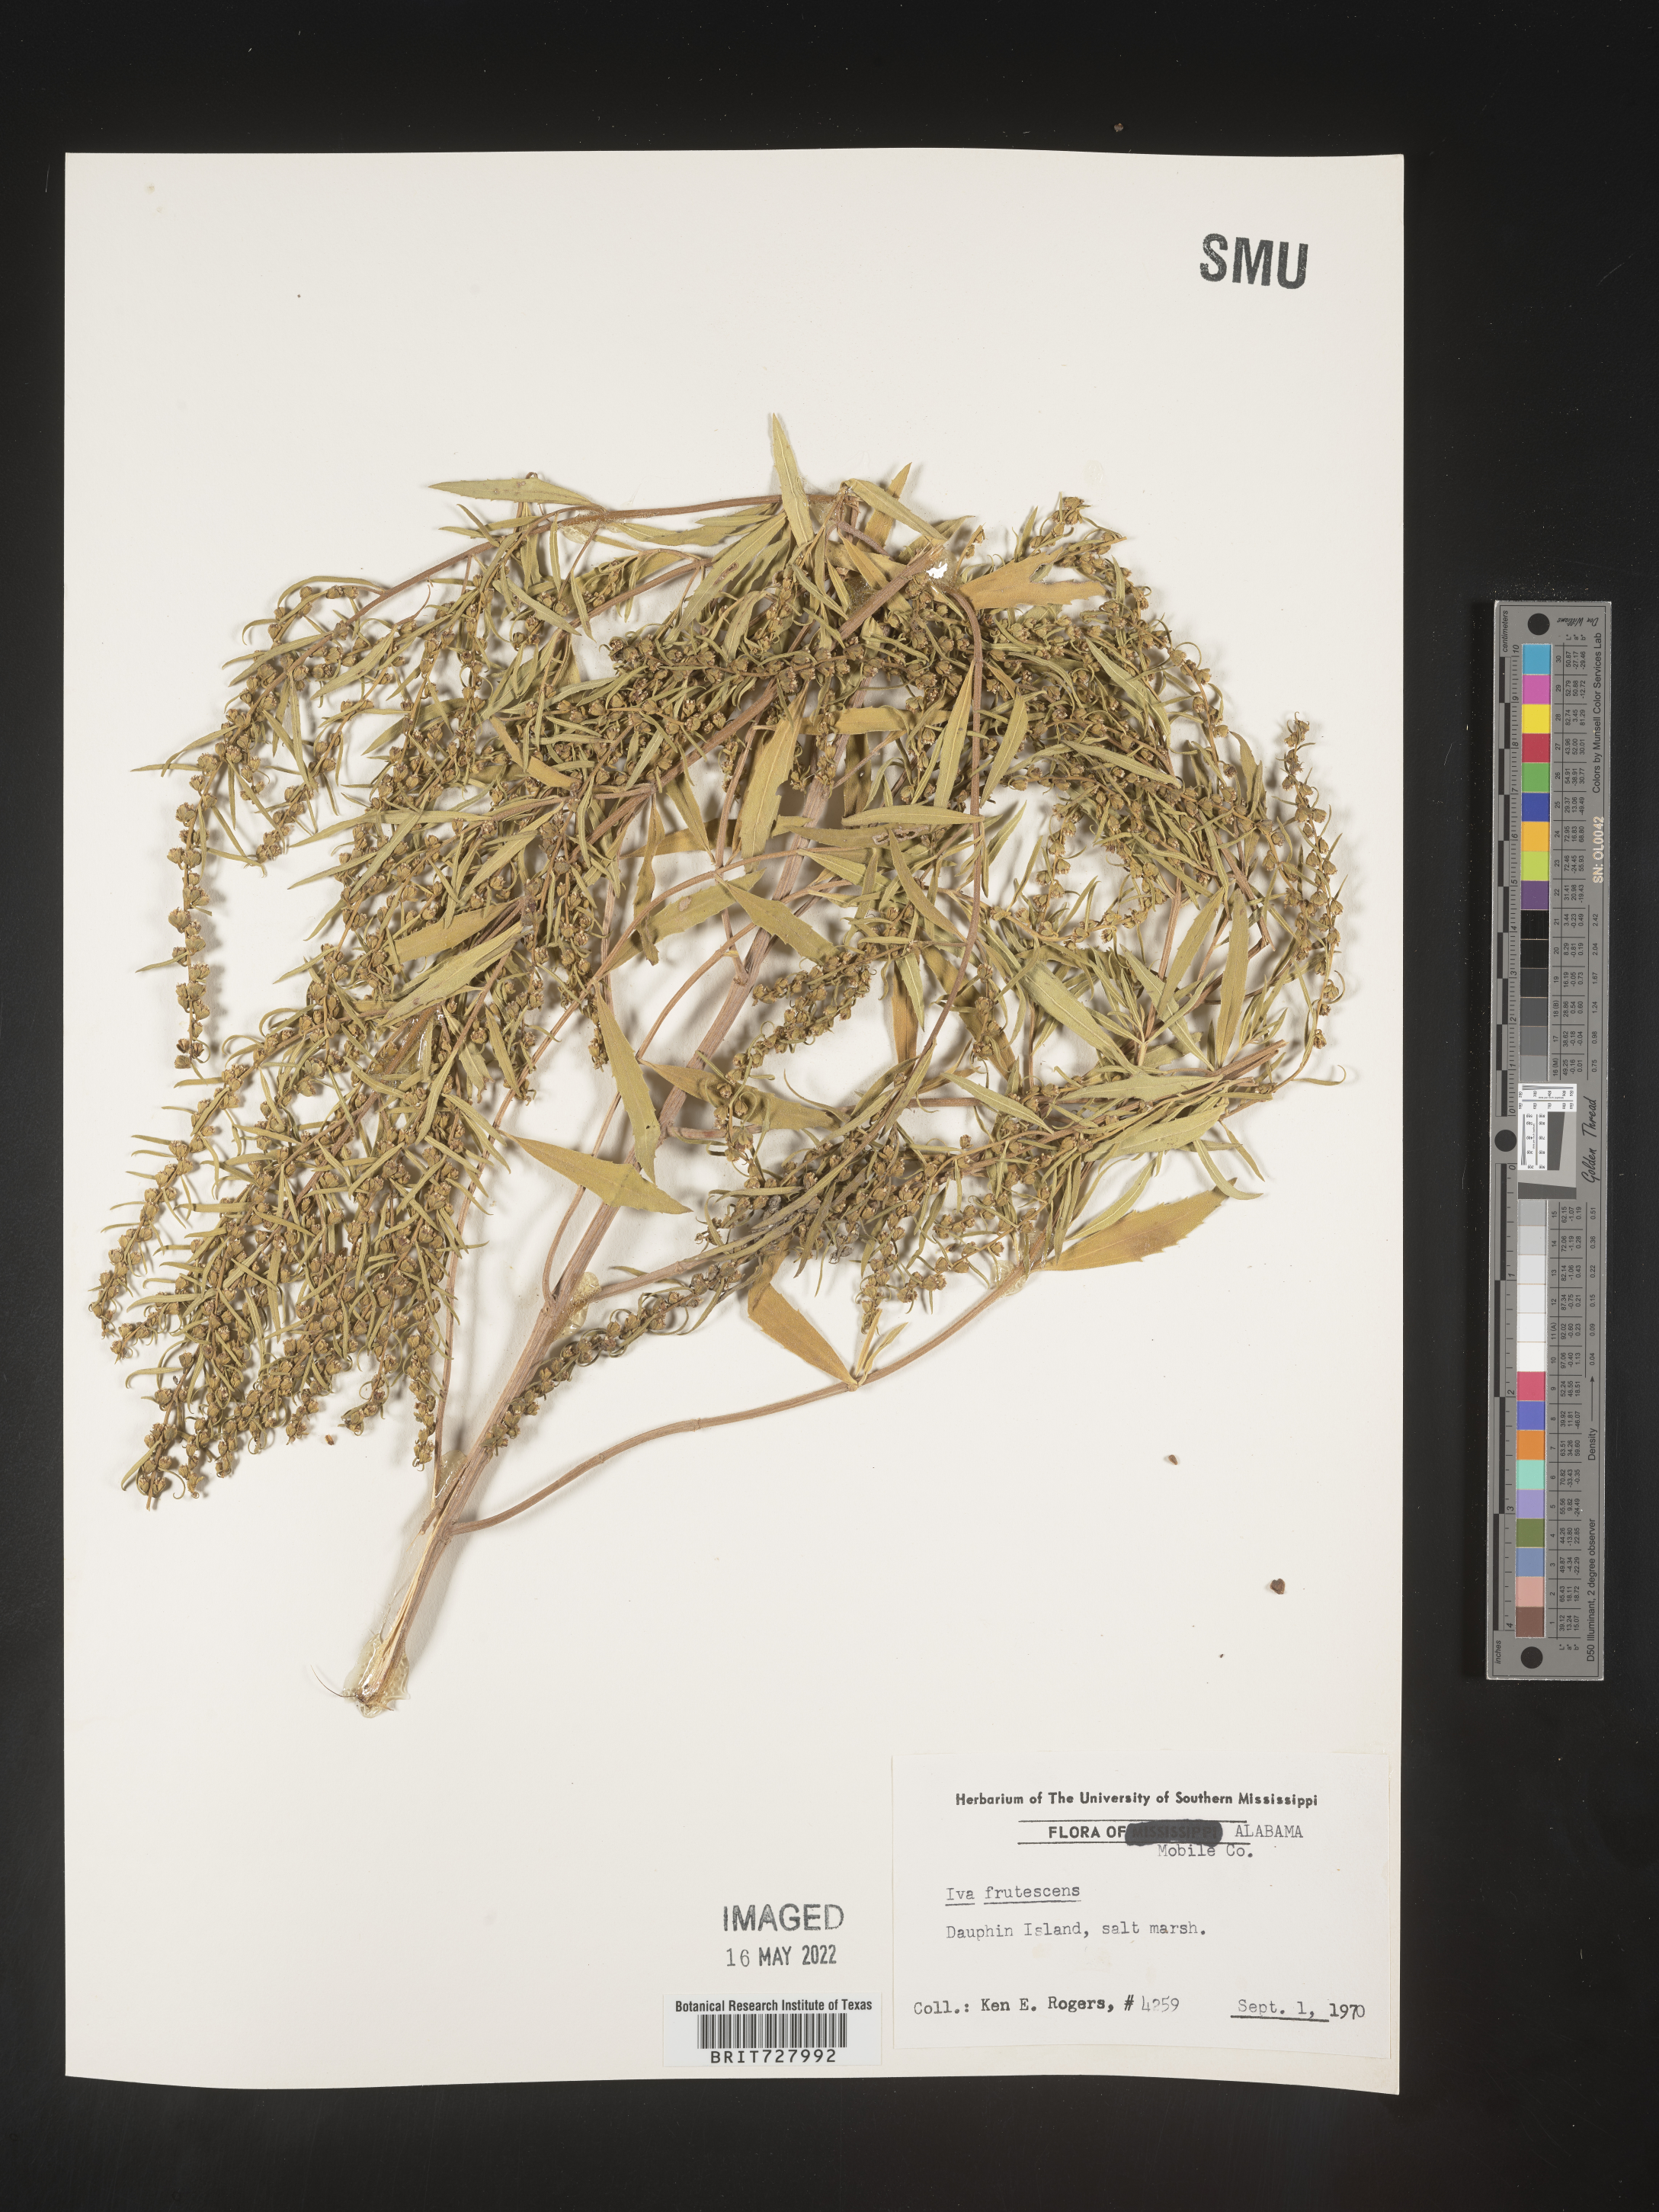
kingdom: Plantae
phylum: Tracheophyta
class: Magnoliopsida
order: Asterales
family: Asteraceae
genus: Iva
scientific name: Iva frutescens
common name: Big-leaved marsh-elder
